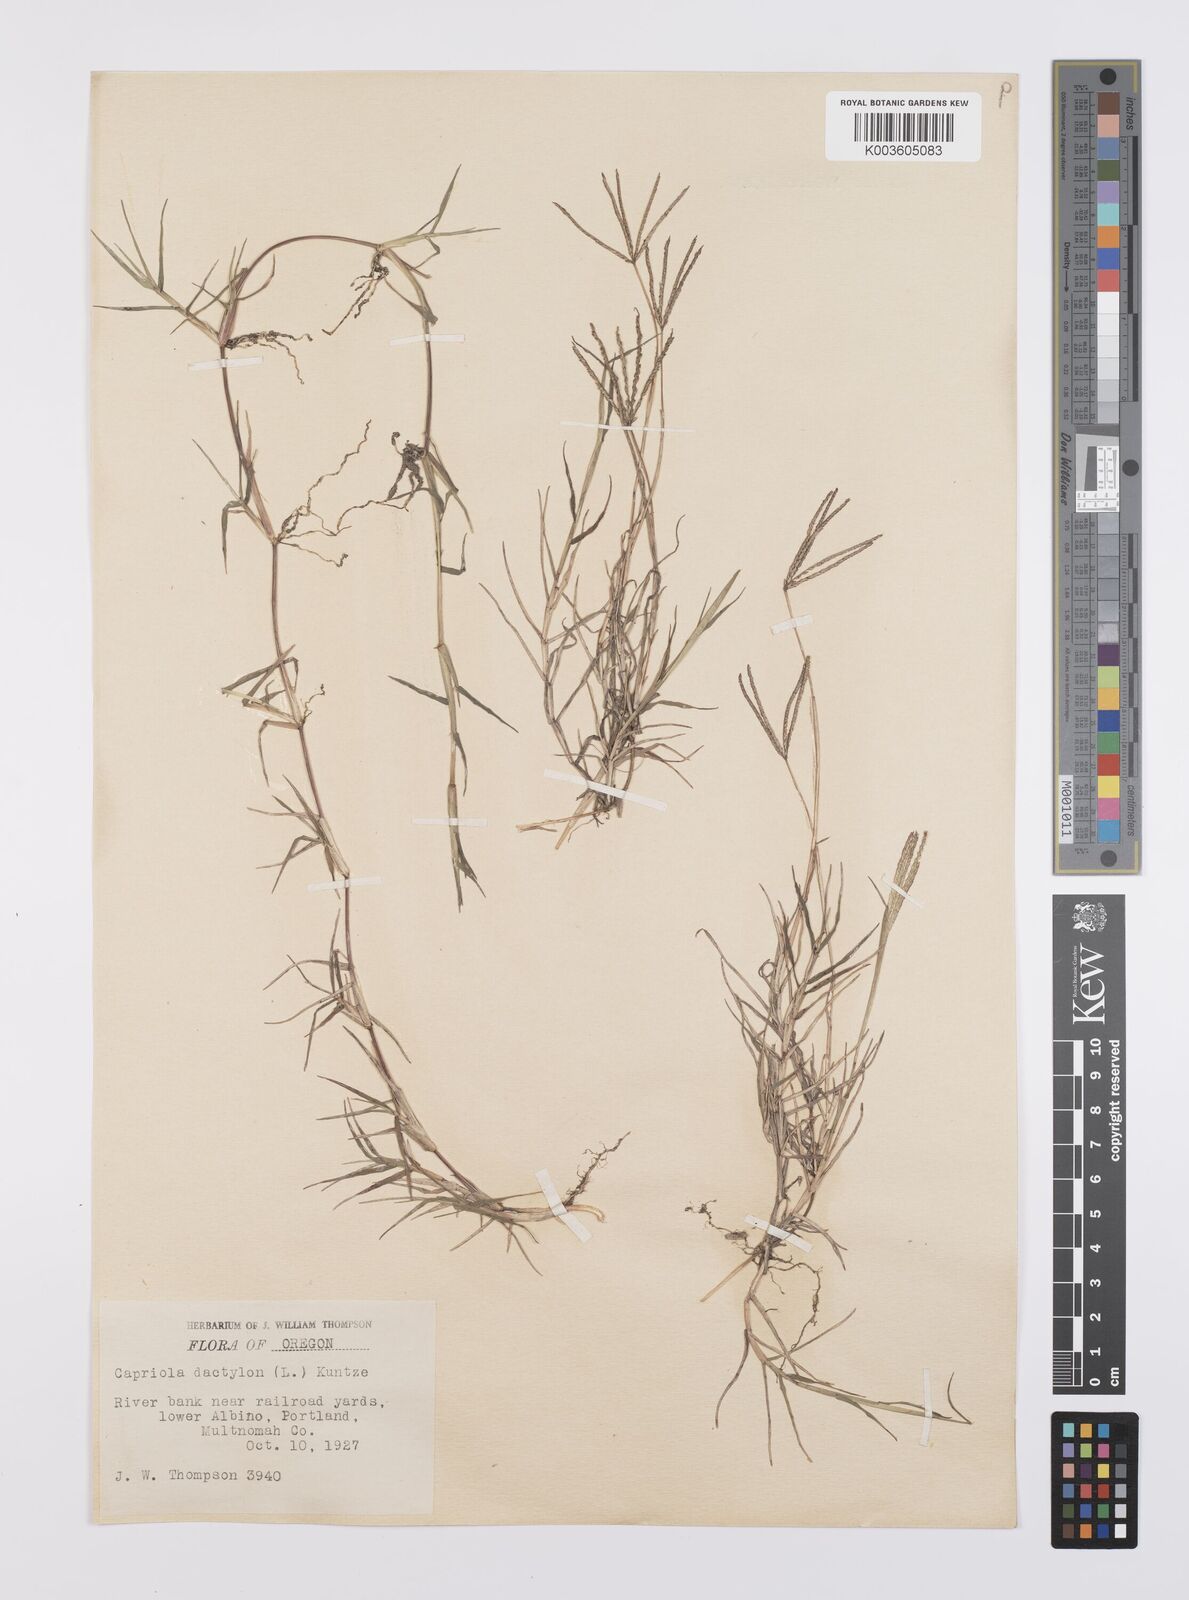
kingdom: Plantae
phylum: Tracheophyta
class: Liliopsida
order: Poales
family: Poaceae
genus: Cynodon
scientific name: Cynodon dactylon
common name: Bermuda grass
